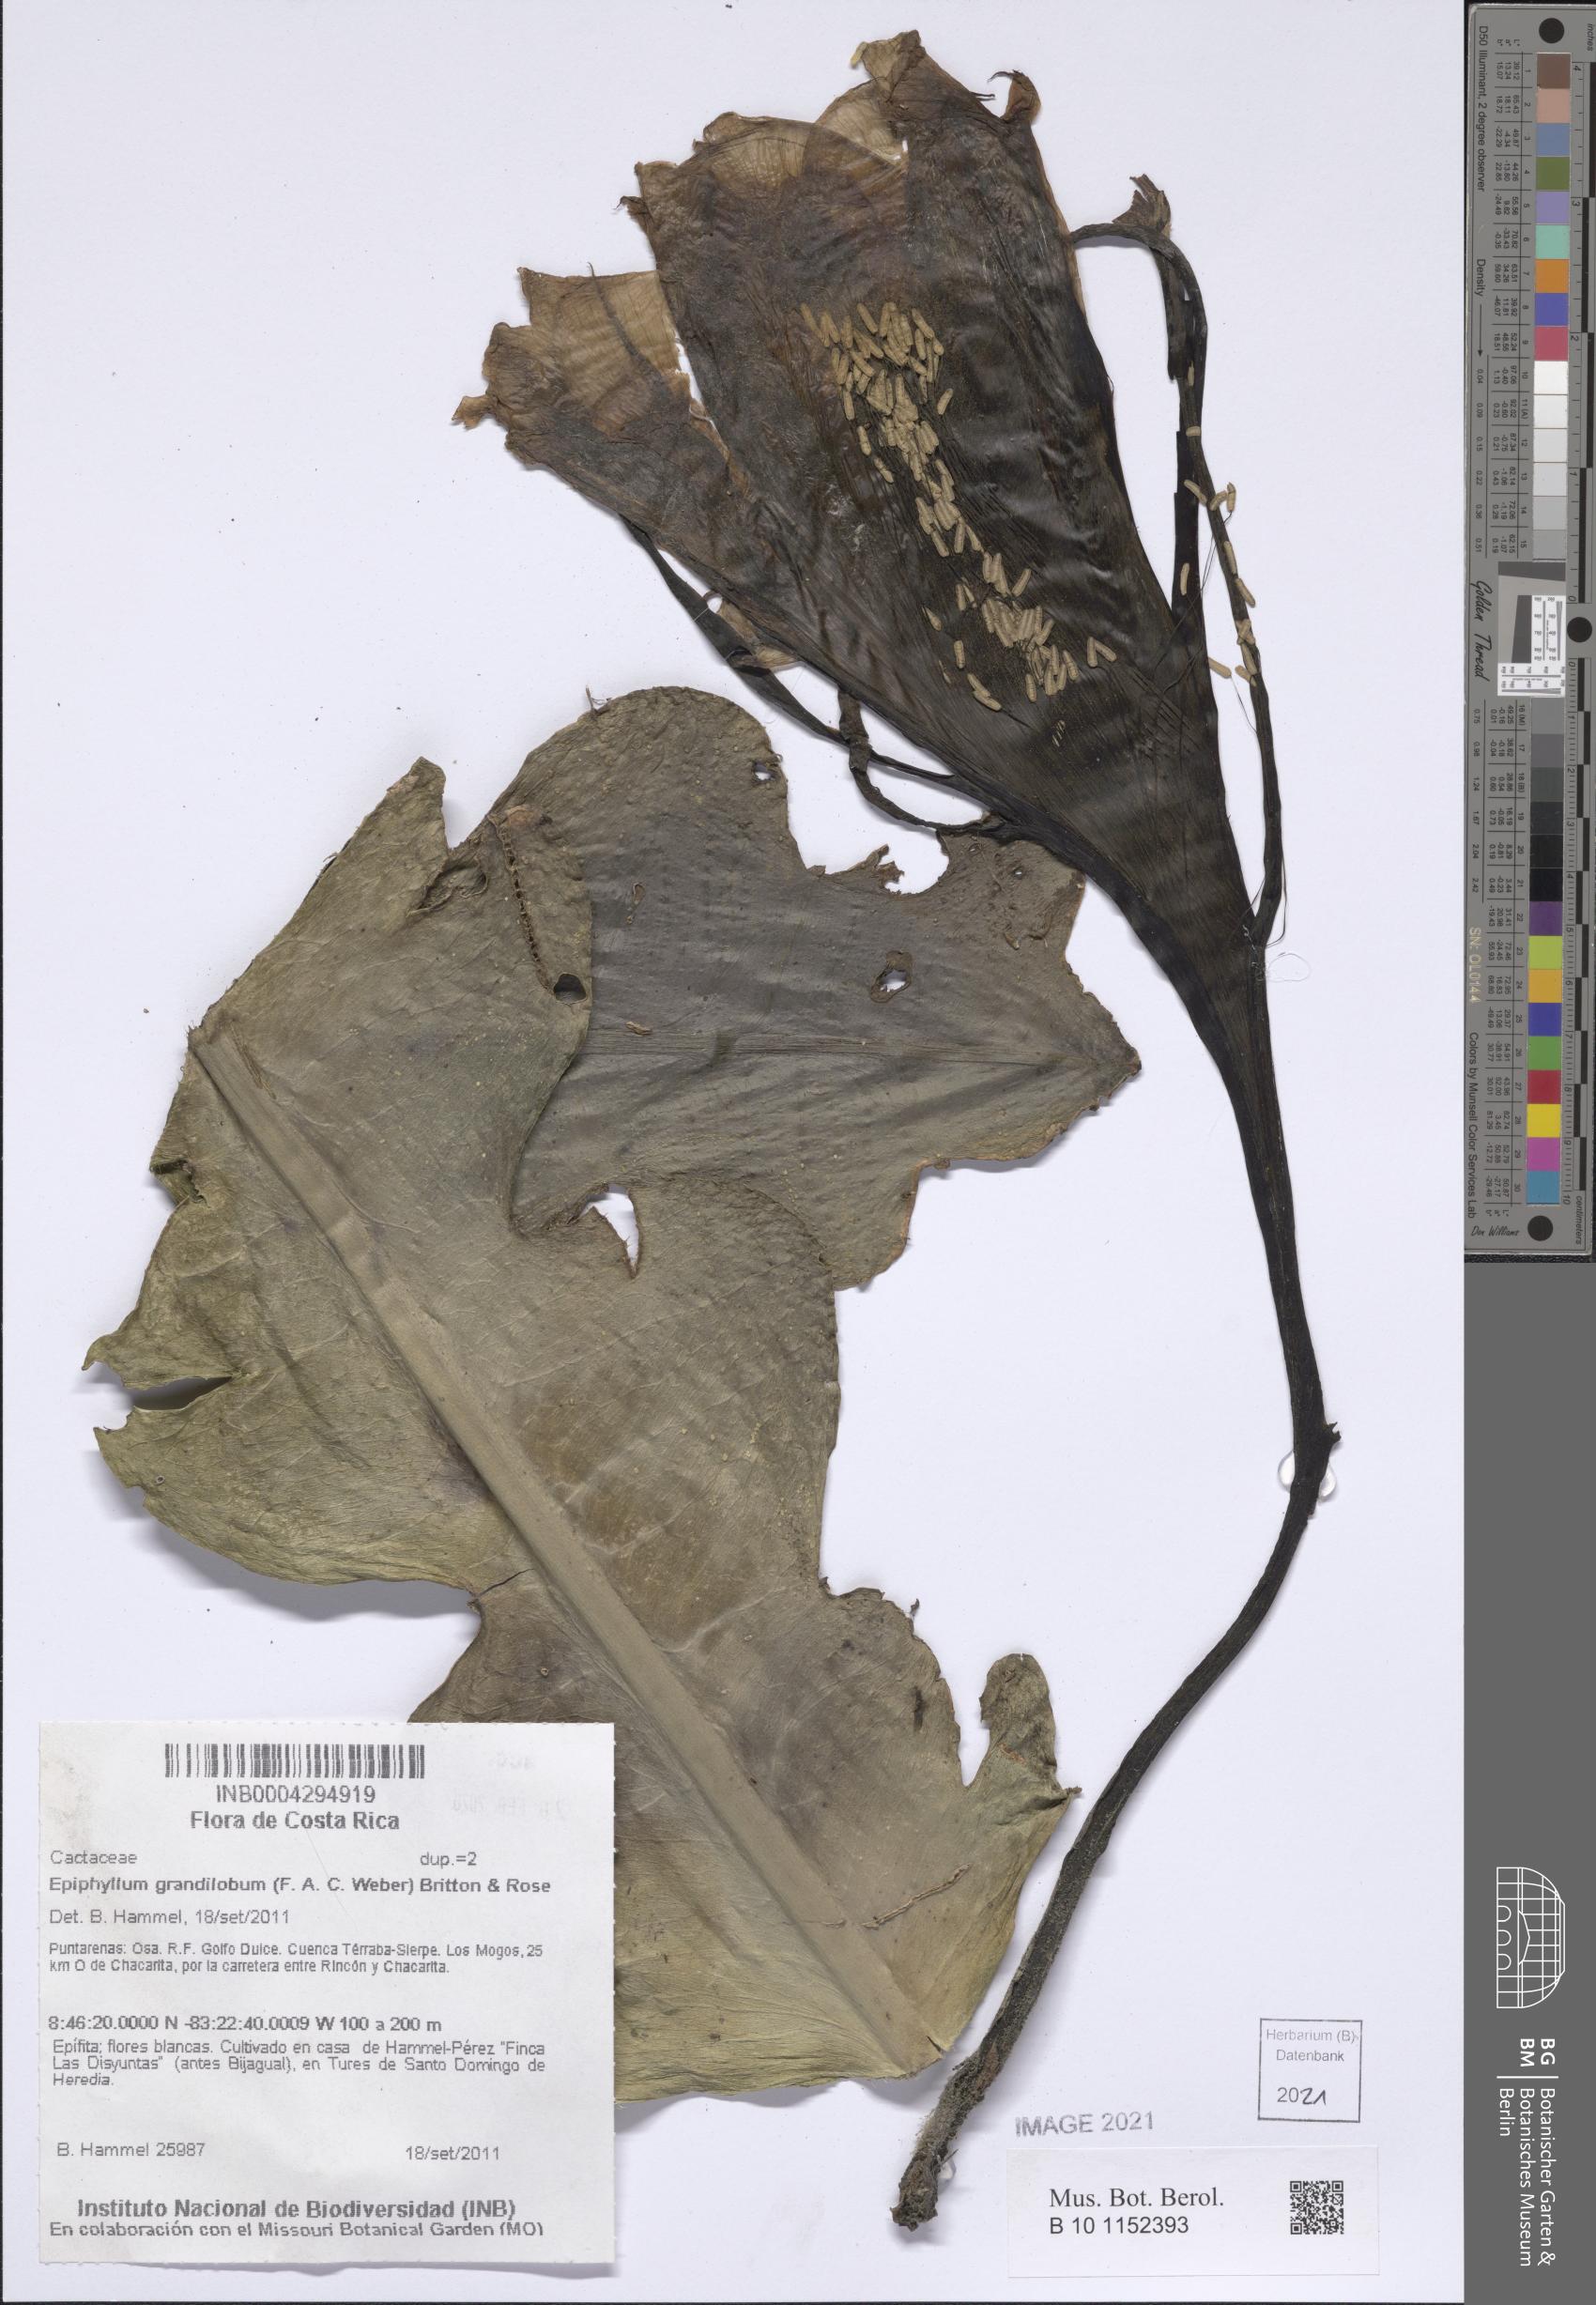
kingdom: Plantae
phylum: Tracheophyta
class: Magnoliopsida
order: Caryophyllales
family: Cactaceae
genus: Epiphyllum
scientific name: Epiphyllum grandilobum
